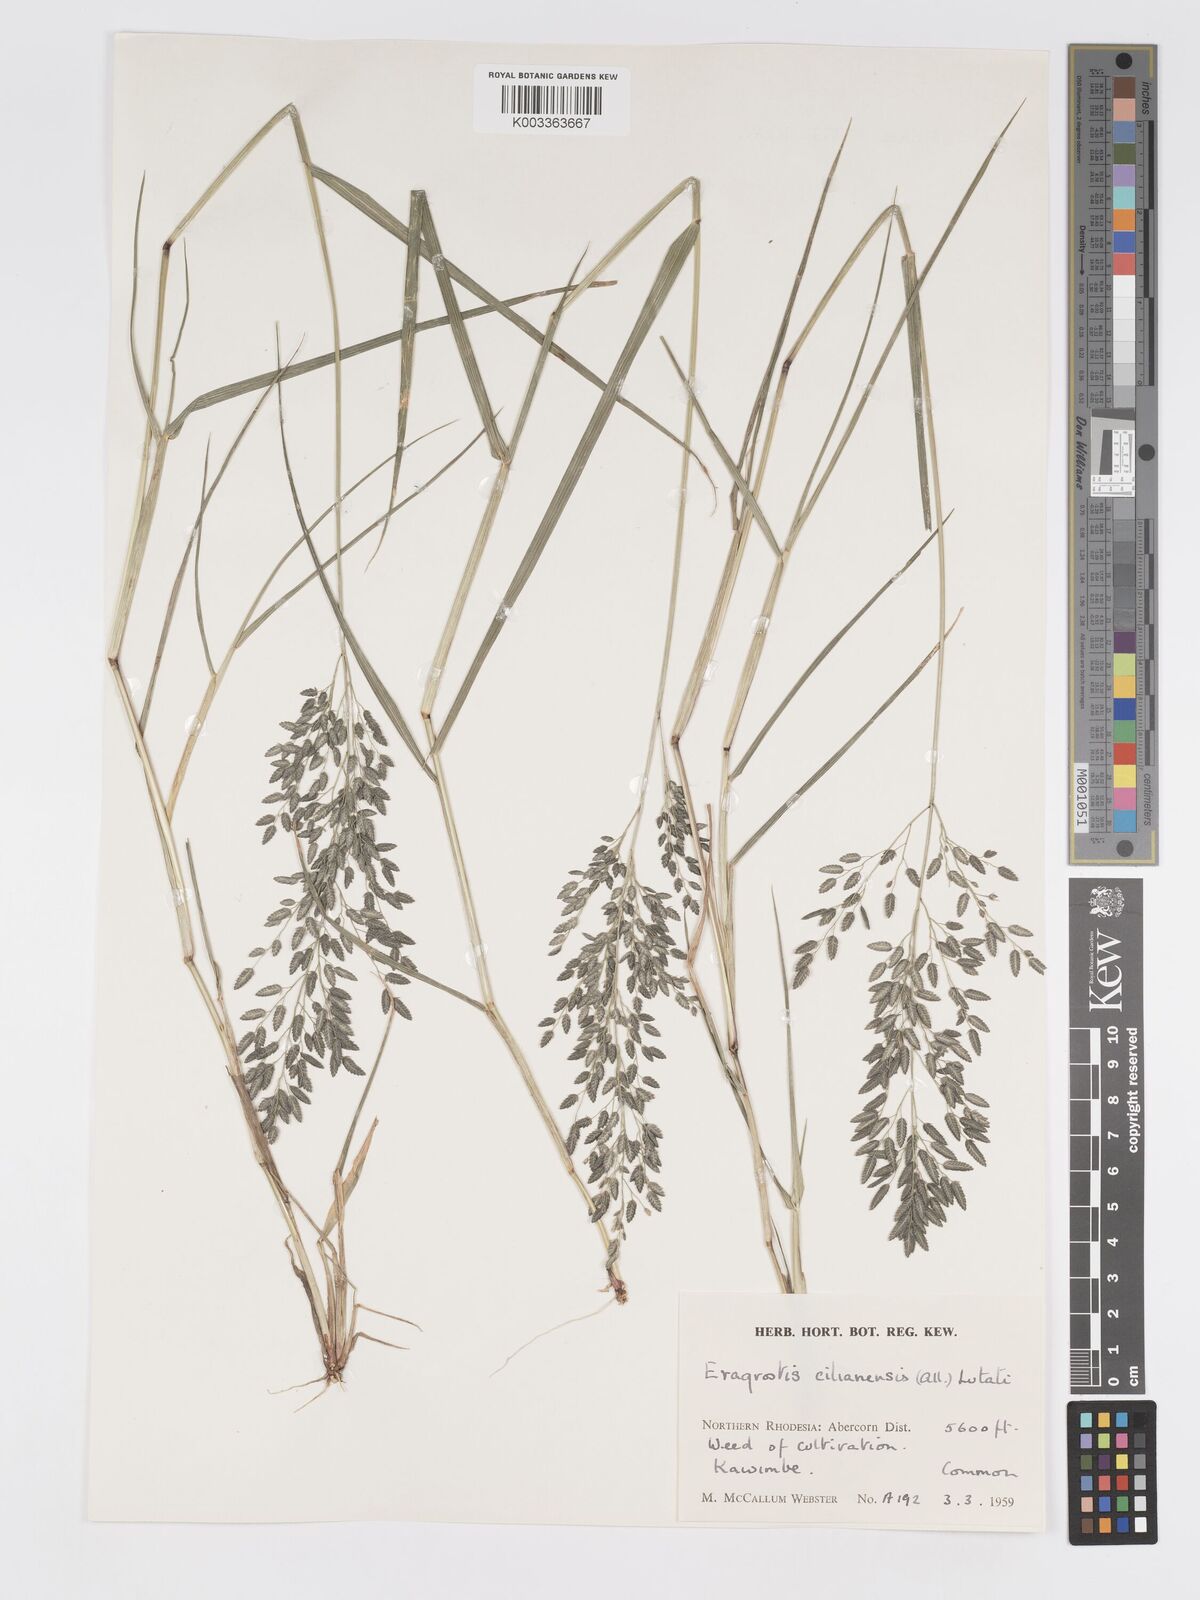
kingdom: Plantae
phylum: Tracheophyta
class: Liliopsida
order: Poales
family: Poaceae
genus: Eragrostis
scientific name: Eragrostis cilianensis
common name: Stinkgrass
